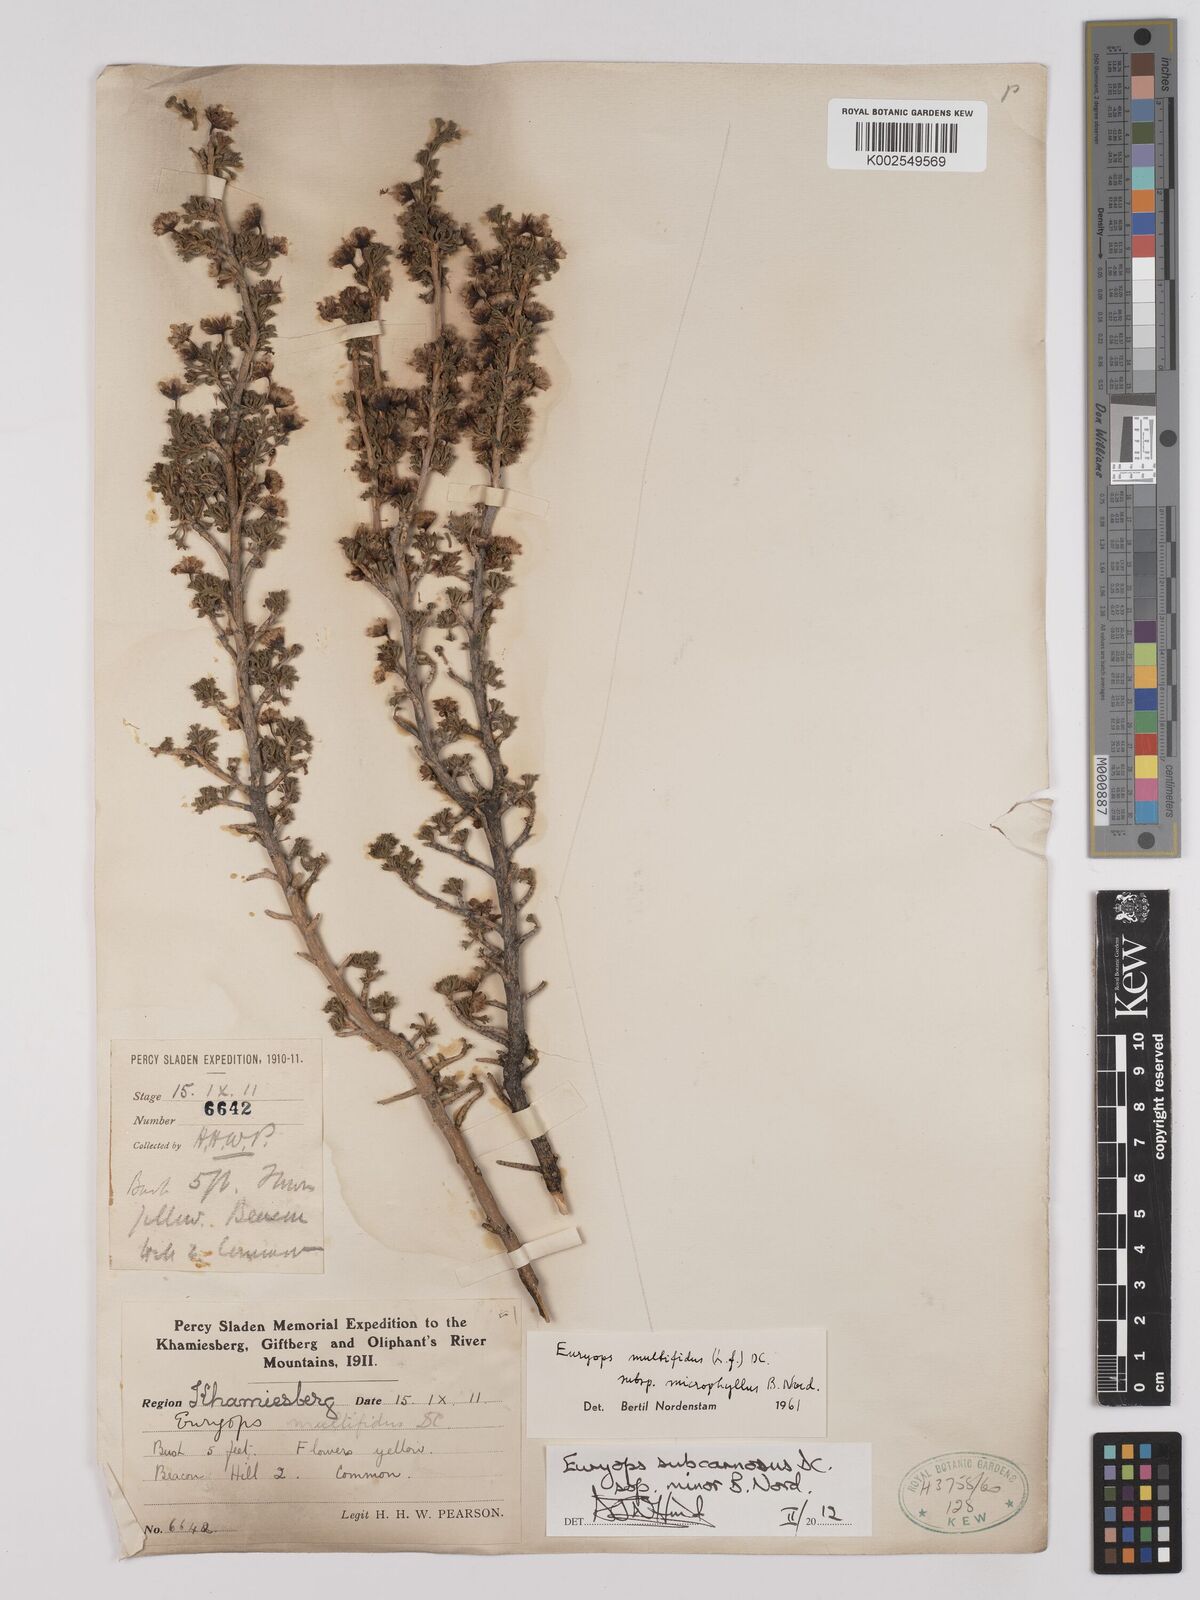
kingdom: Plantae
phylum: Tracheophyta
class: Magnoliopsida
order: Asterales
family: Asteraceae
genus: Euryops
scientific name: Euryops subcarnosus
